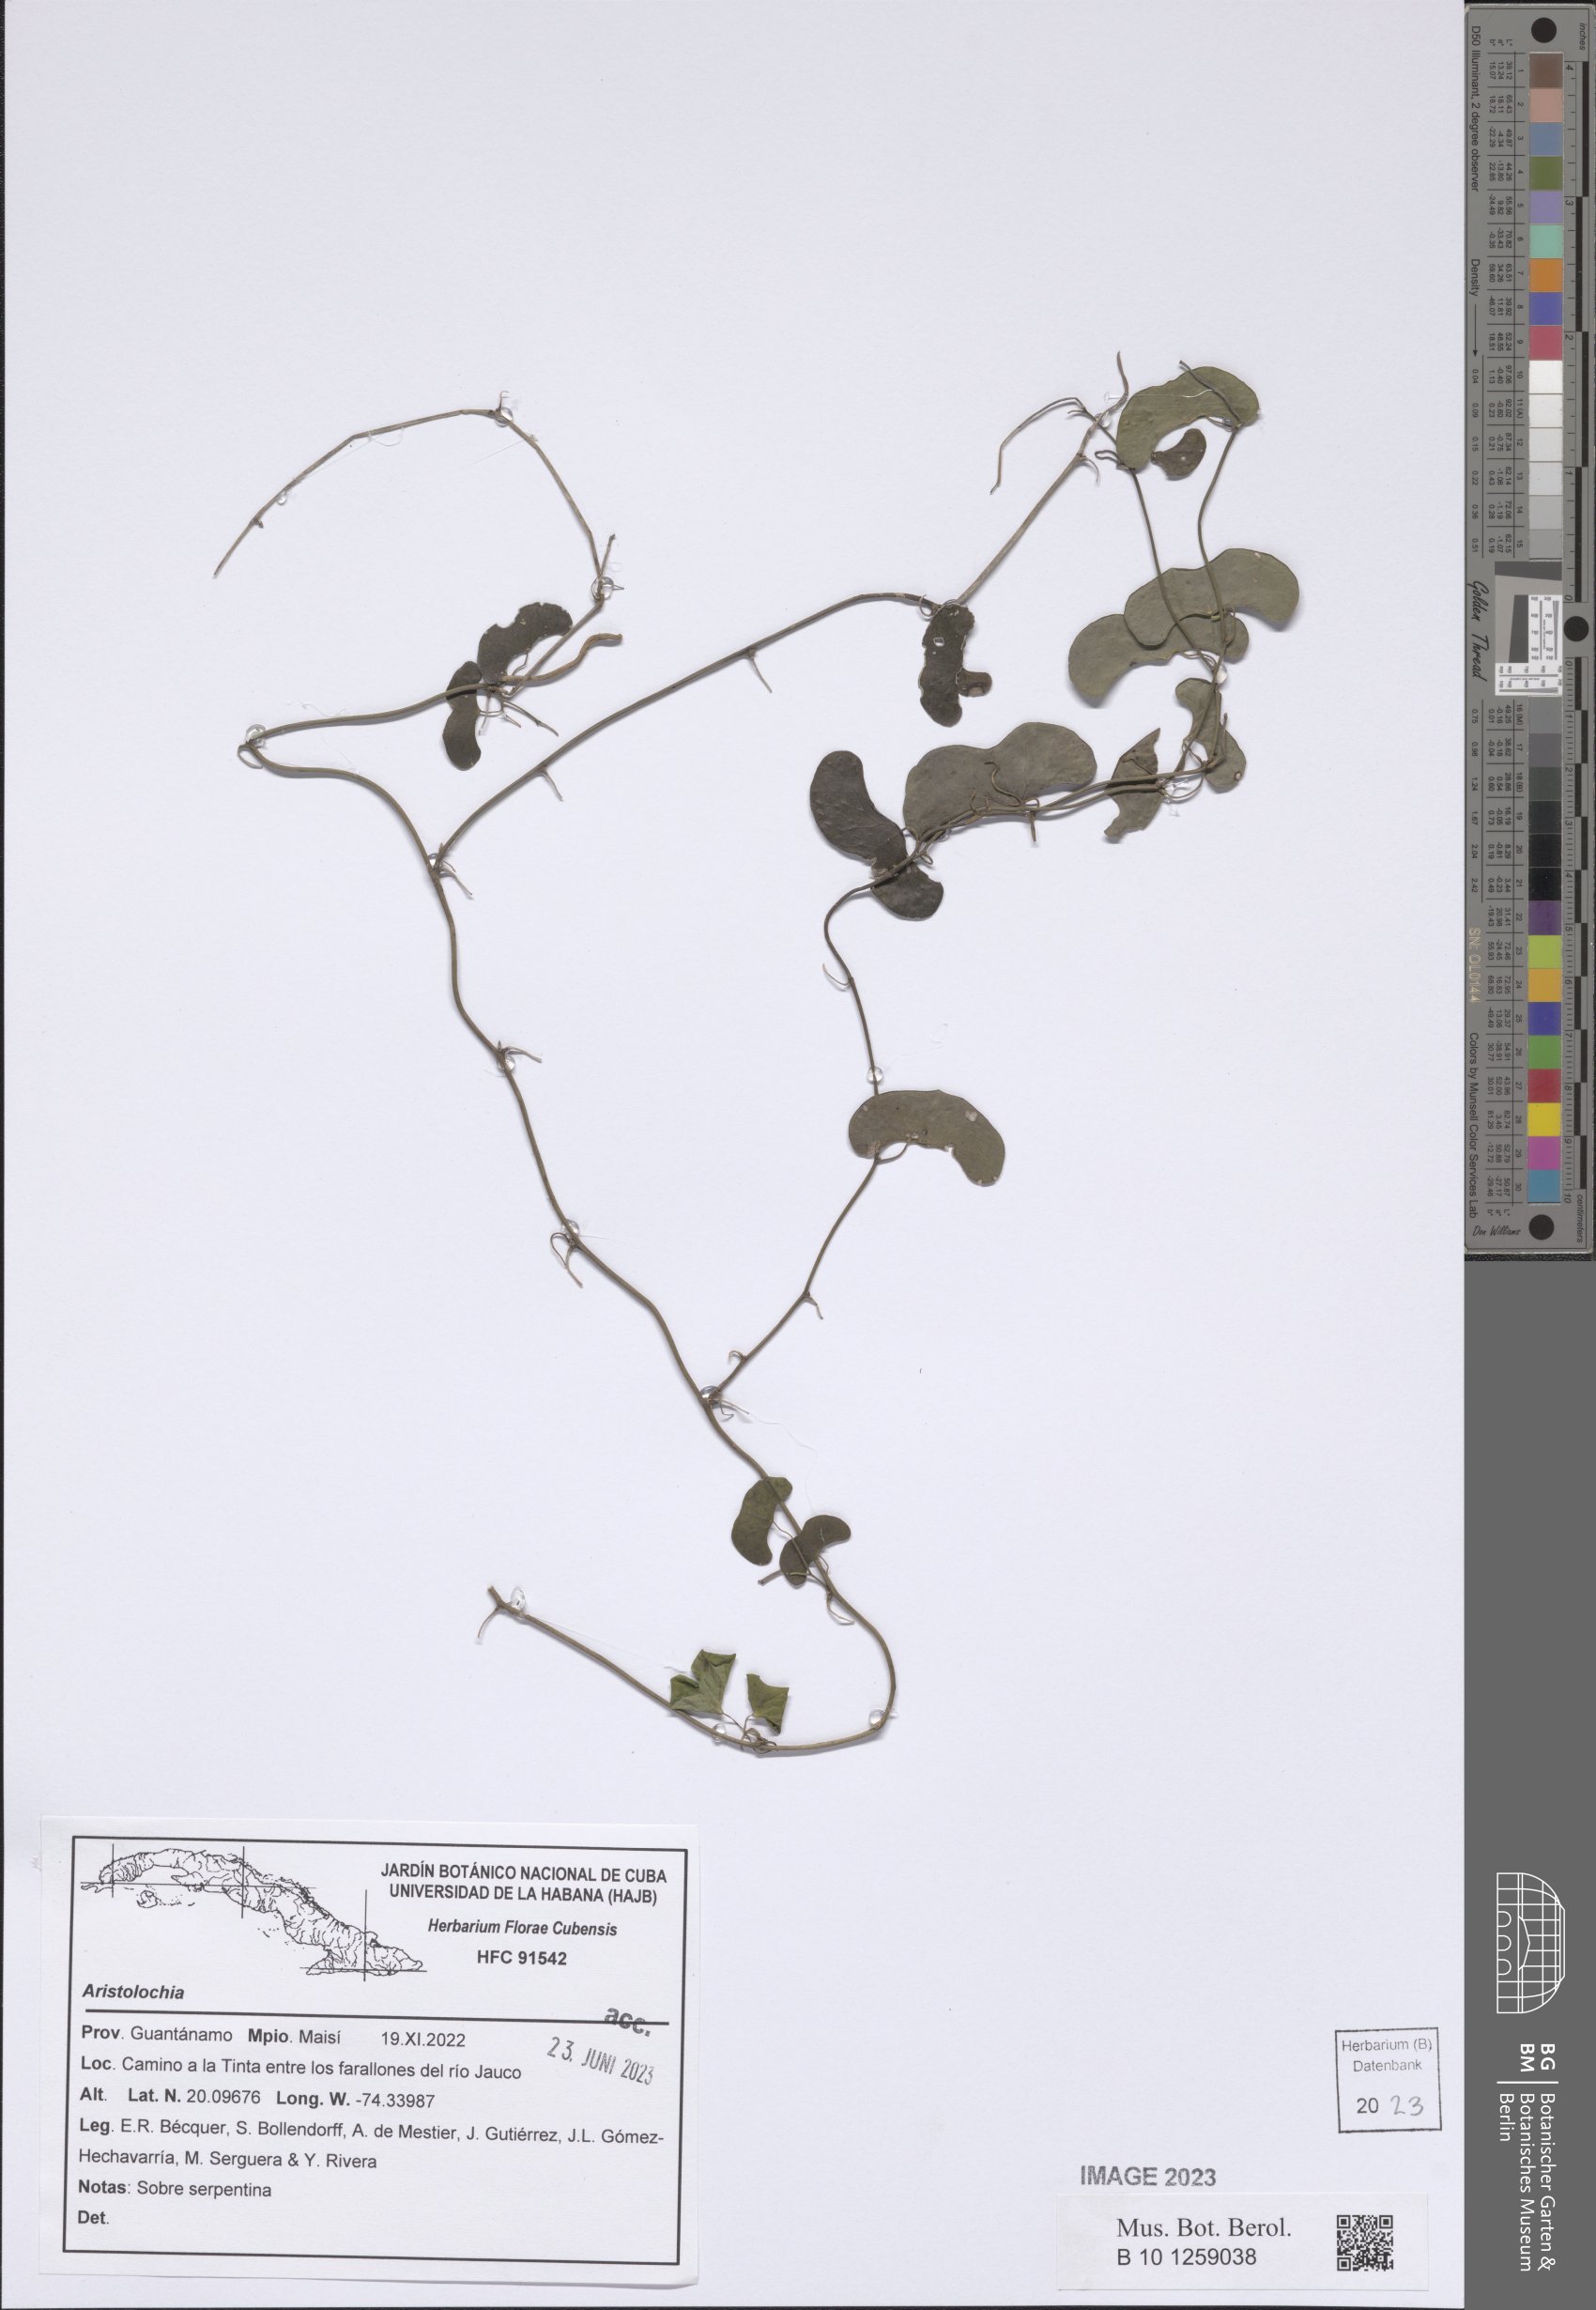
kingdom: Plantae
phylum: Tracheophyta
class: Magnoliopsida
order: Piperales
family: Aristolochiaceae
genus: Aristolochia
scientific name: Aristolochia
